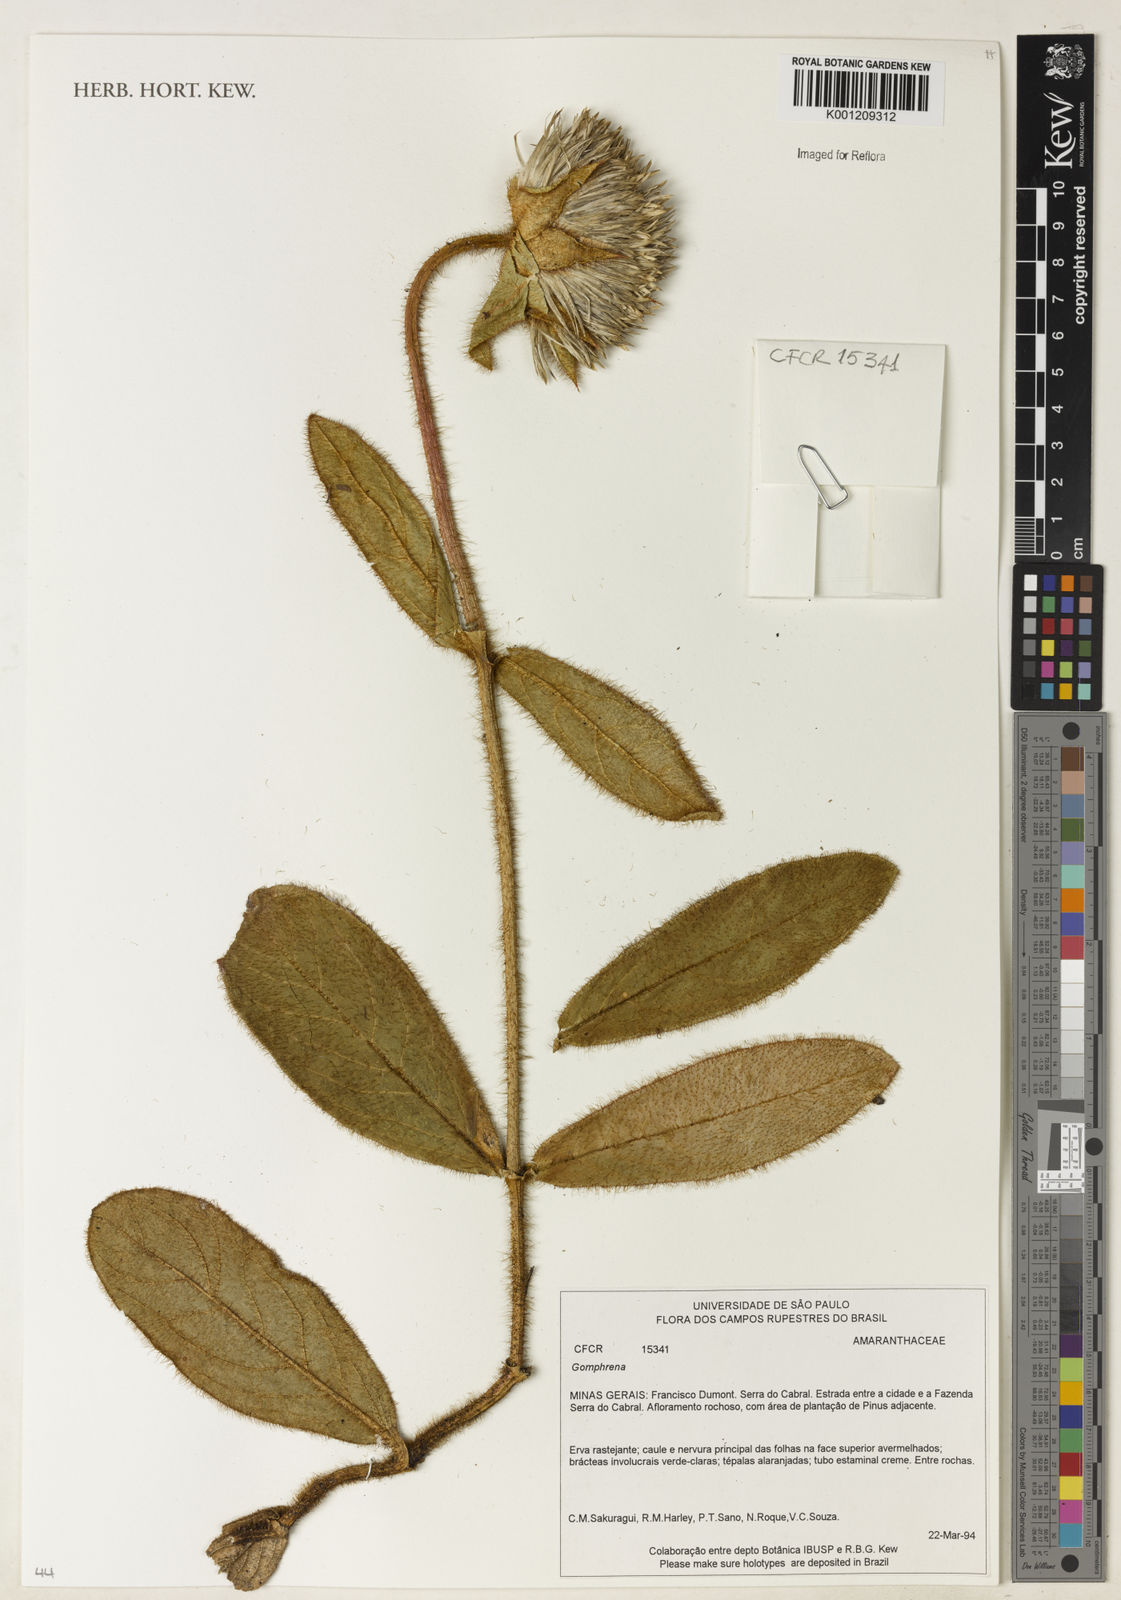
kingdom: Plantae
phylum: Tracheophyta
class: Magnoliopsida
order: Caryophyllales
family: Amaranthaceae
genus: Gomphrena
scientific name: Gomphrena
